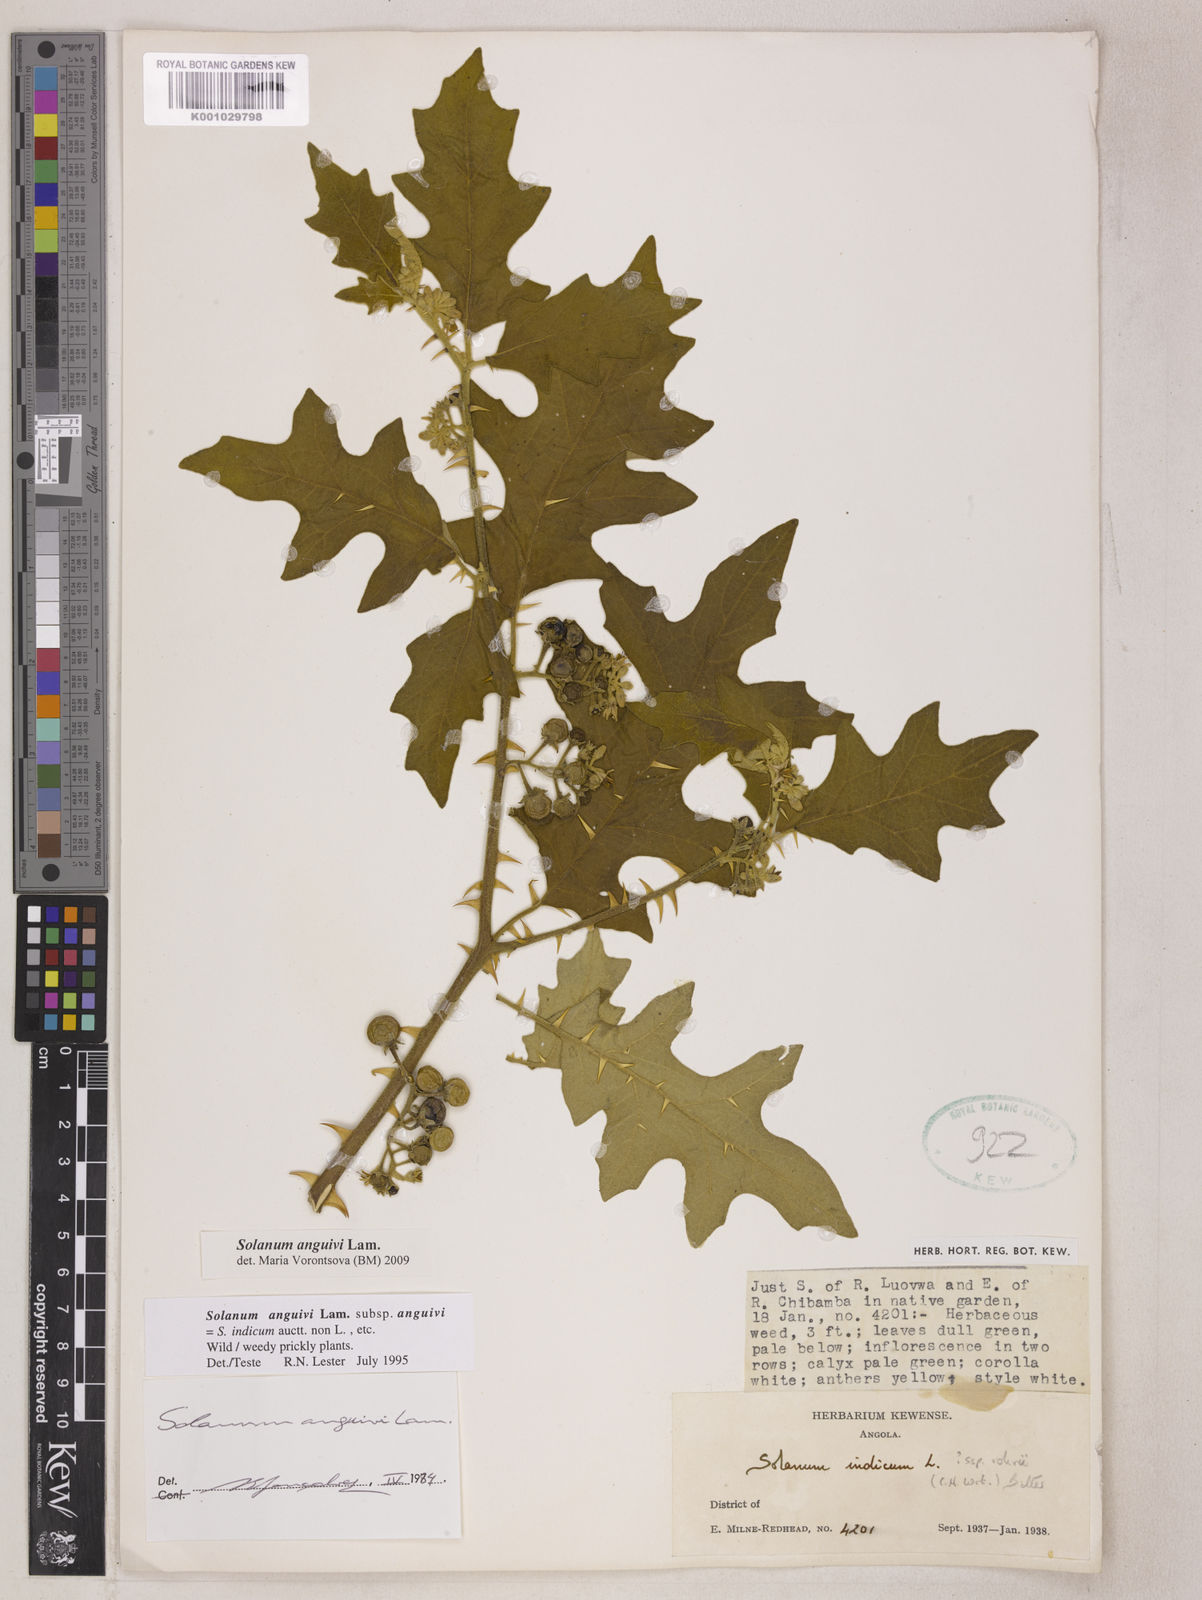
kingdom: Plantae
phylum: Tracheophyta
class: Magnoliopsida
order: Solanales
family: Solanaceae
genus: Solanum
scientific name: Solanum anguivi
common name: Forest bitterberry
